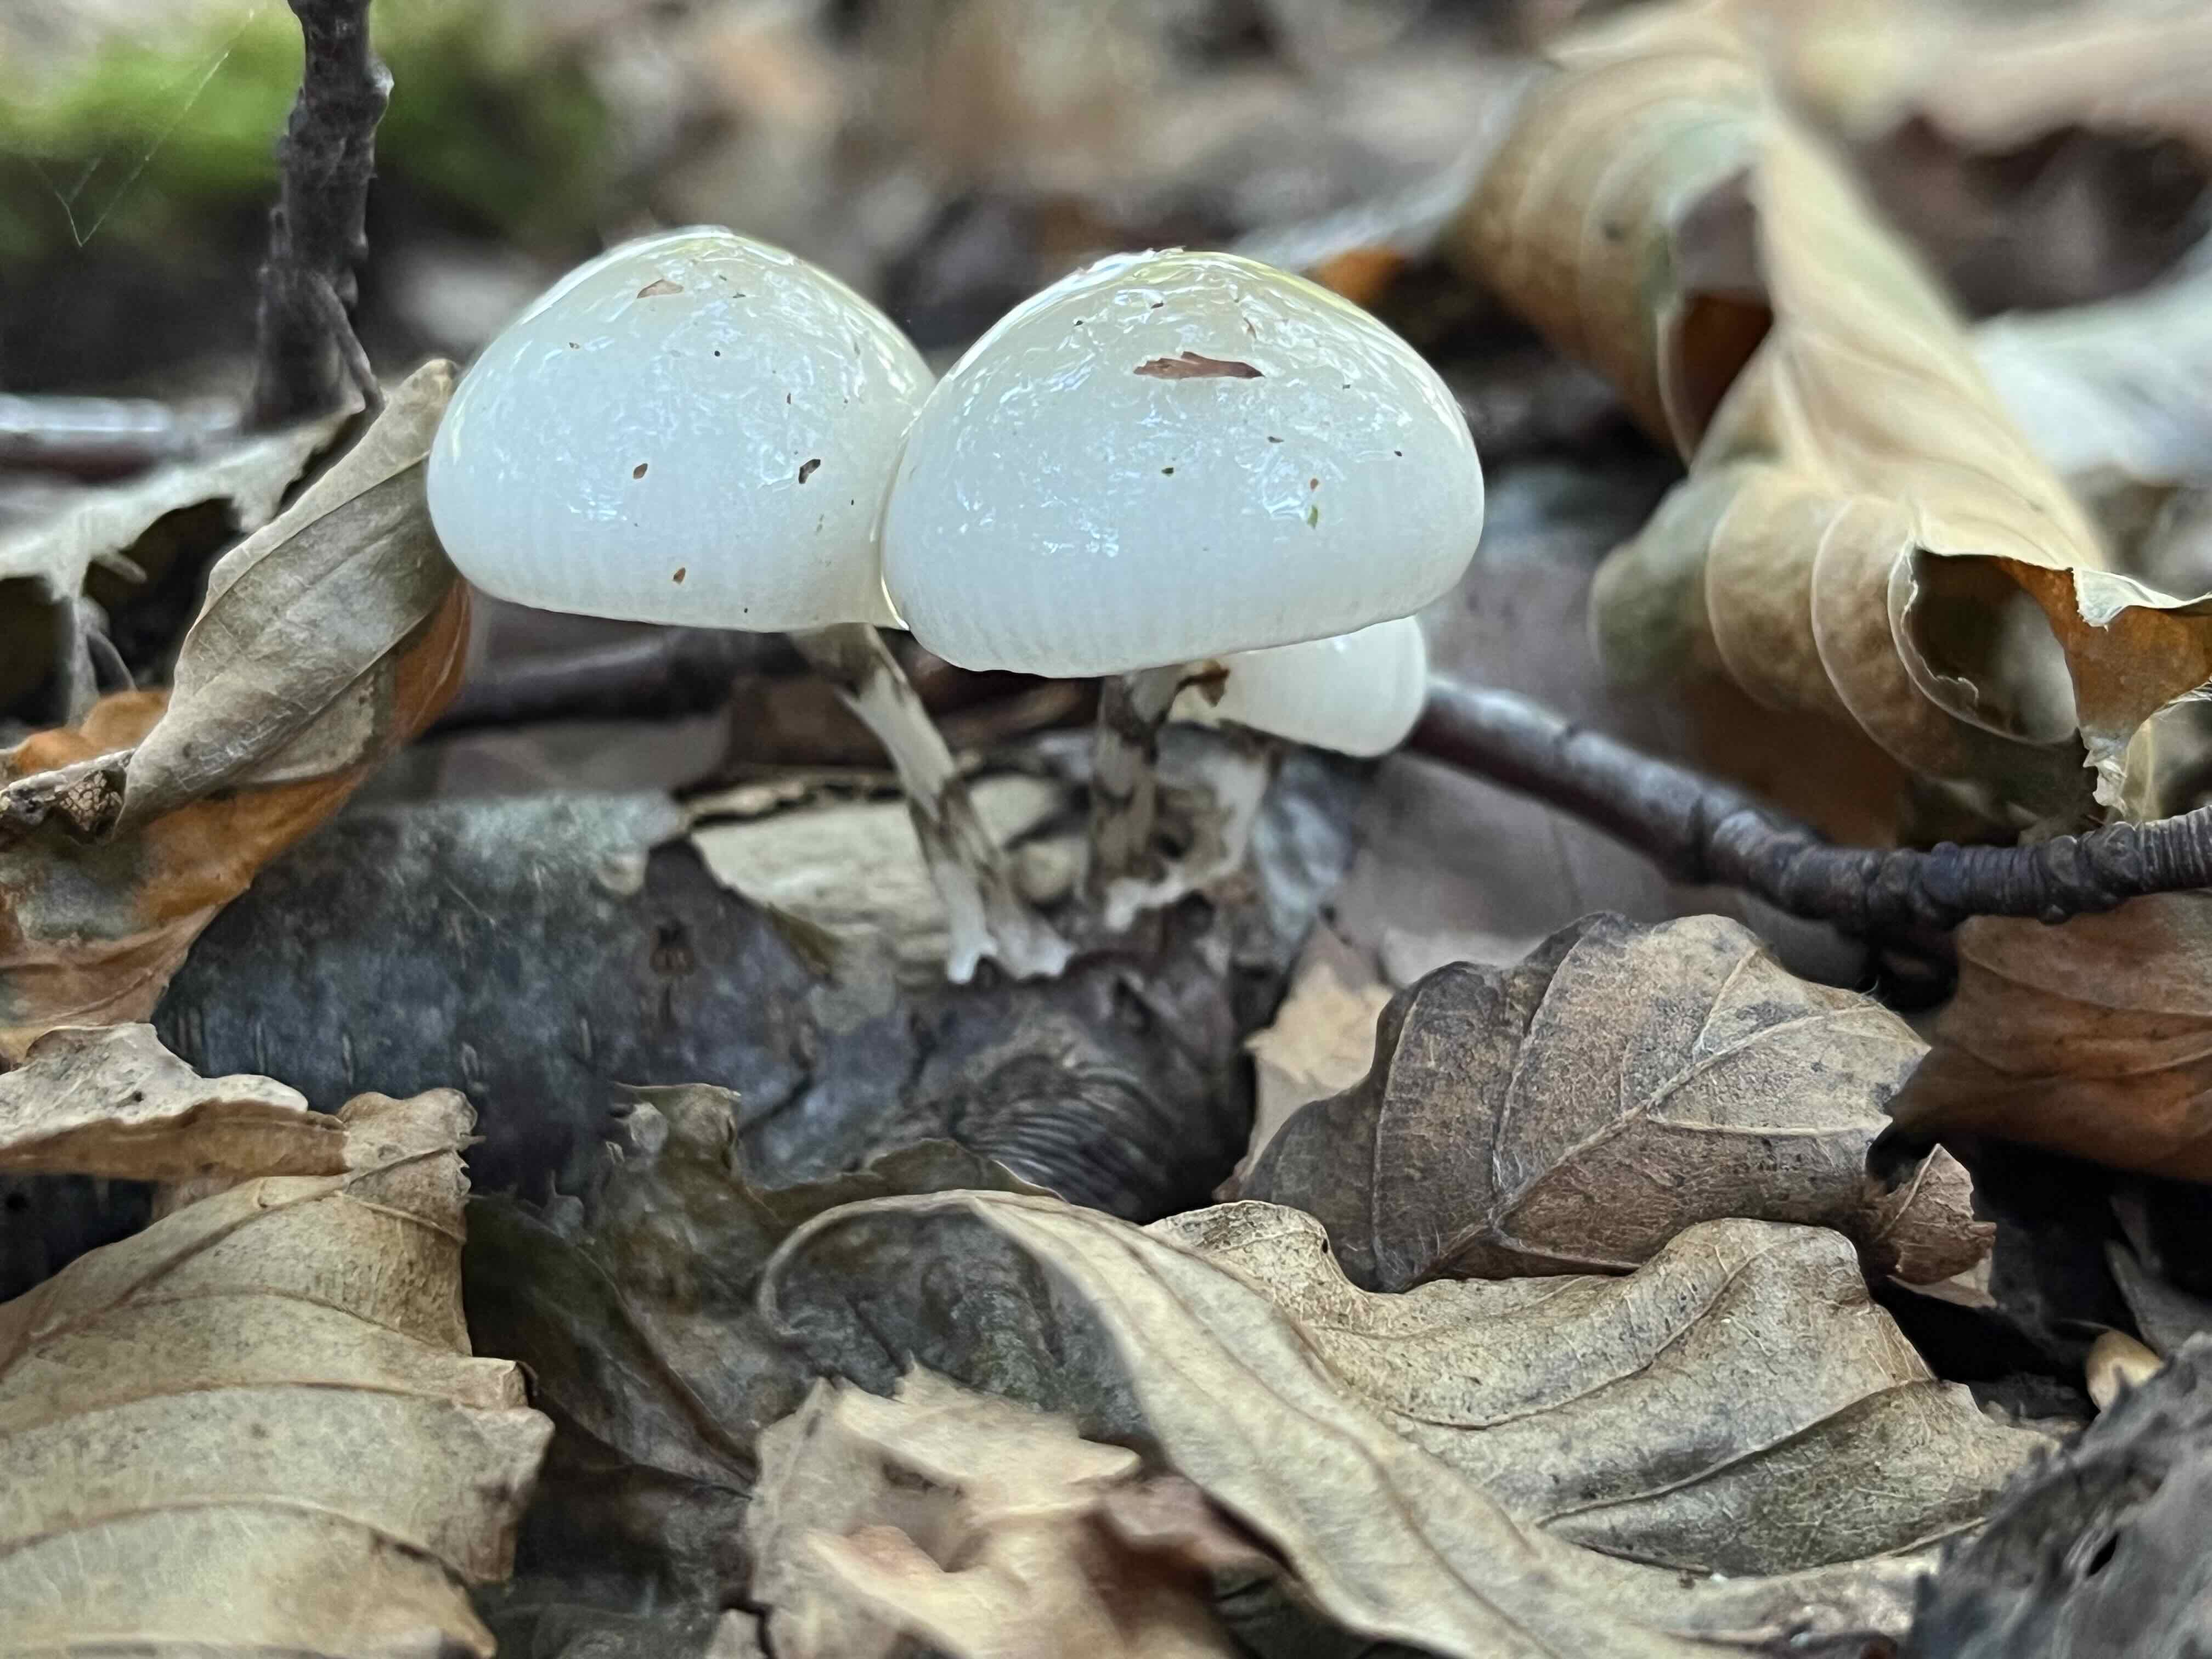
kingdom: Fungi
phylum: Basidiomycota
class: Agaricomycetes
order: Agaricales
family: Physalacriaceae
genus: Mucidula
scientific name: Mucidula mucida
